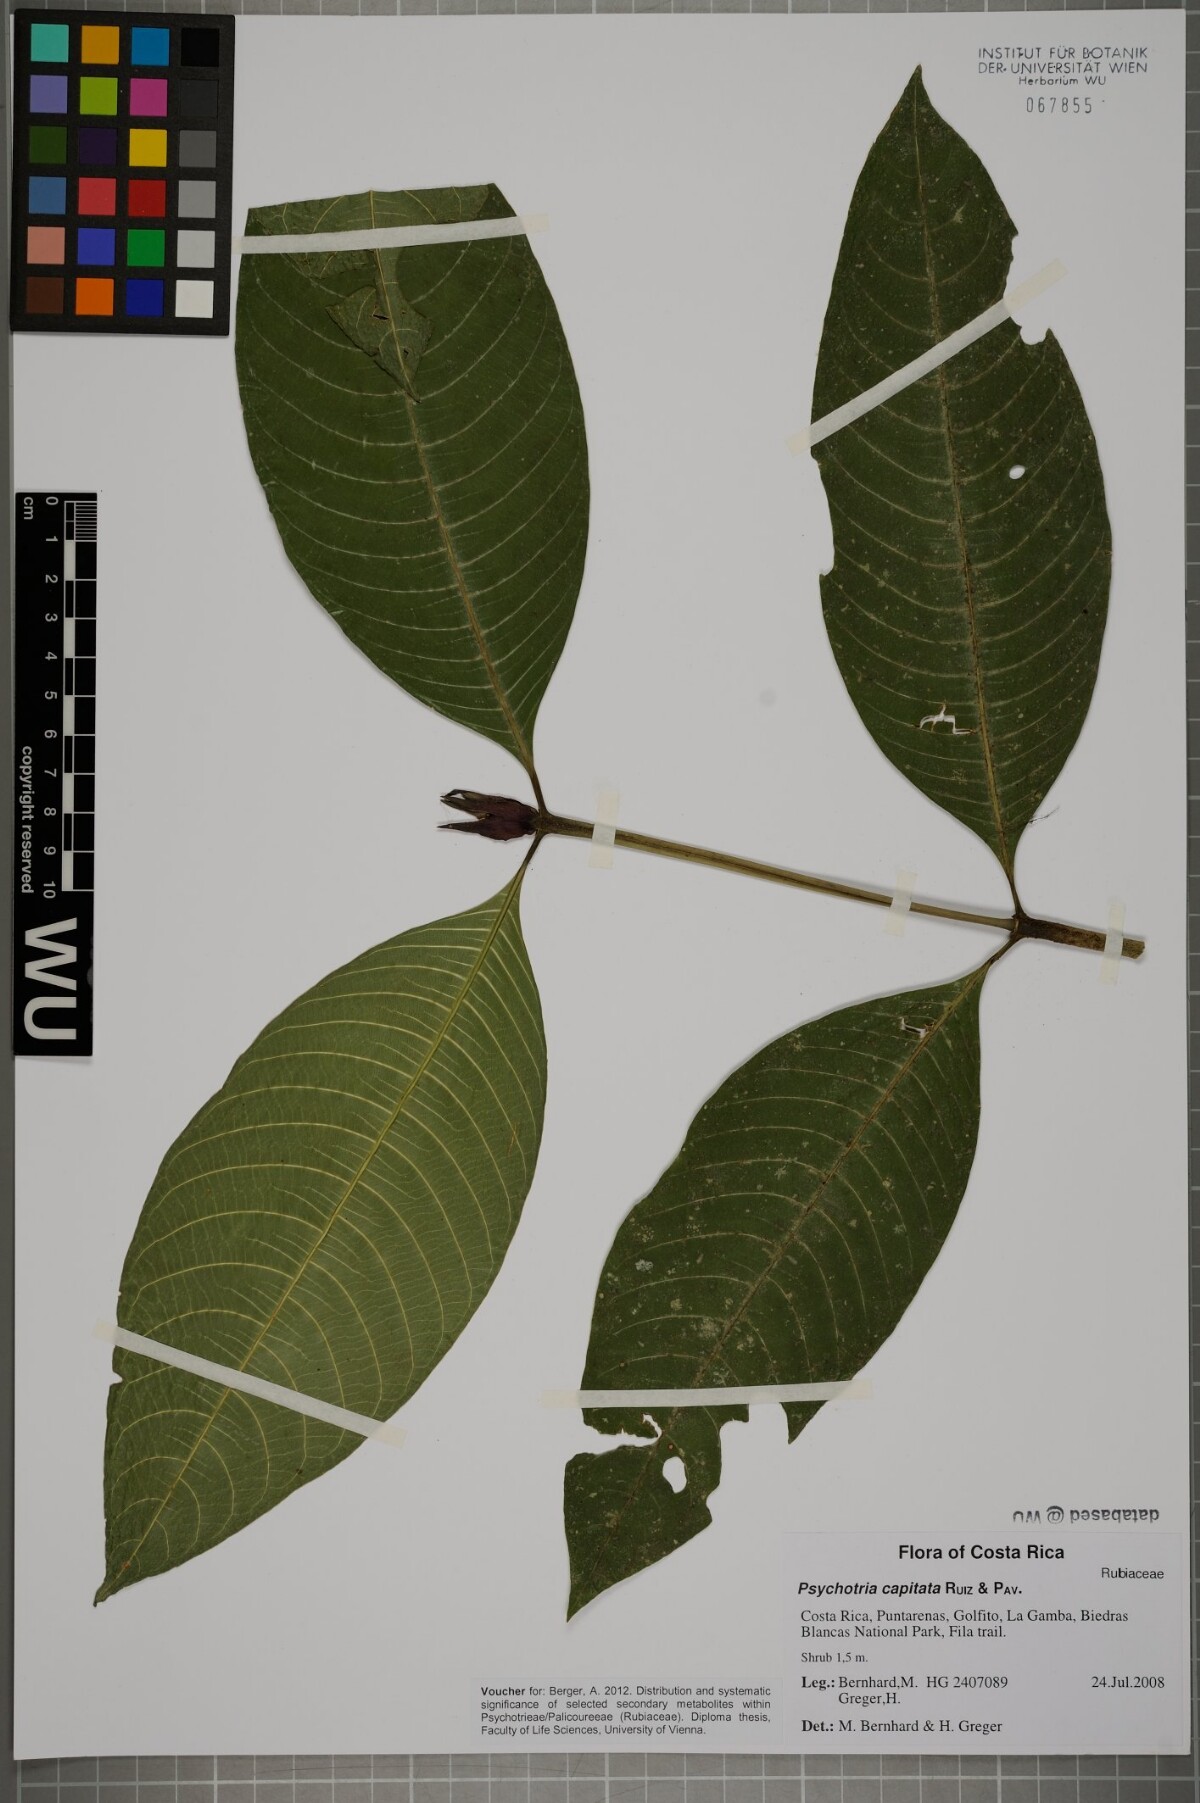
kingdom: Plantae
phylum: Tracheophyta
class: Magnoliopsida
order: Gentianales
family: Rubiaceae
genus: Palicourea
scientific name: Palicourea violacea
